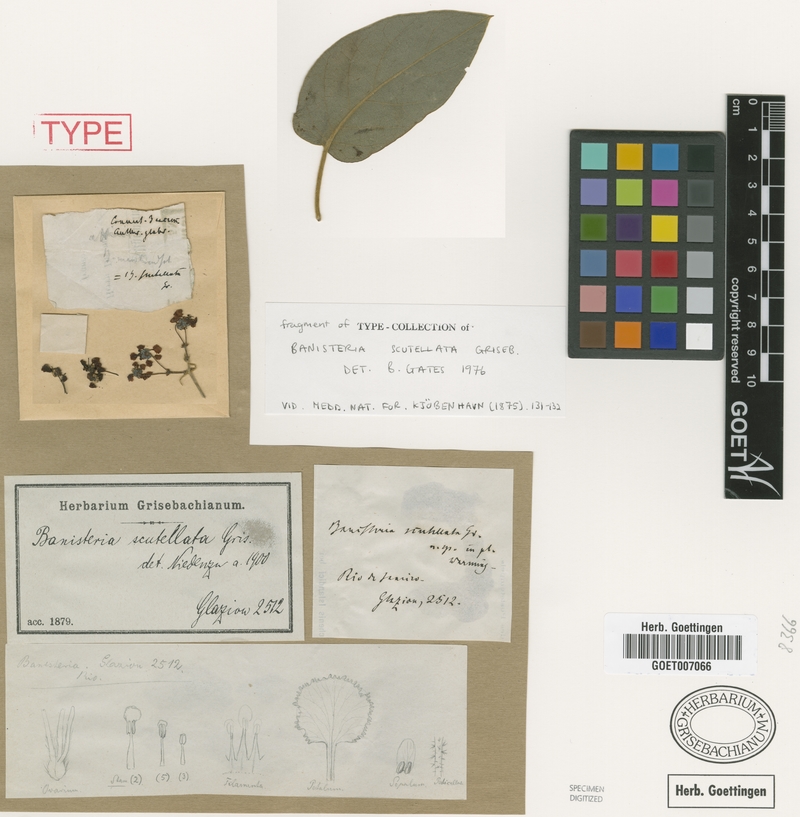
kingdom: Plantae
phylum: Tracheophyta
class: Magnoliopsida
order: Malpighiales
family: Malpighiaceae
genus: Banisteriopsis
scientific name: Banisteriopsis scutellata
